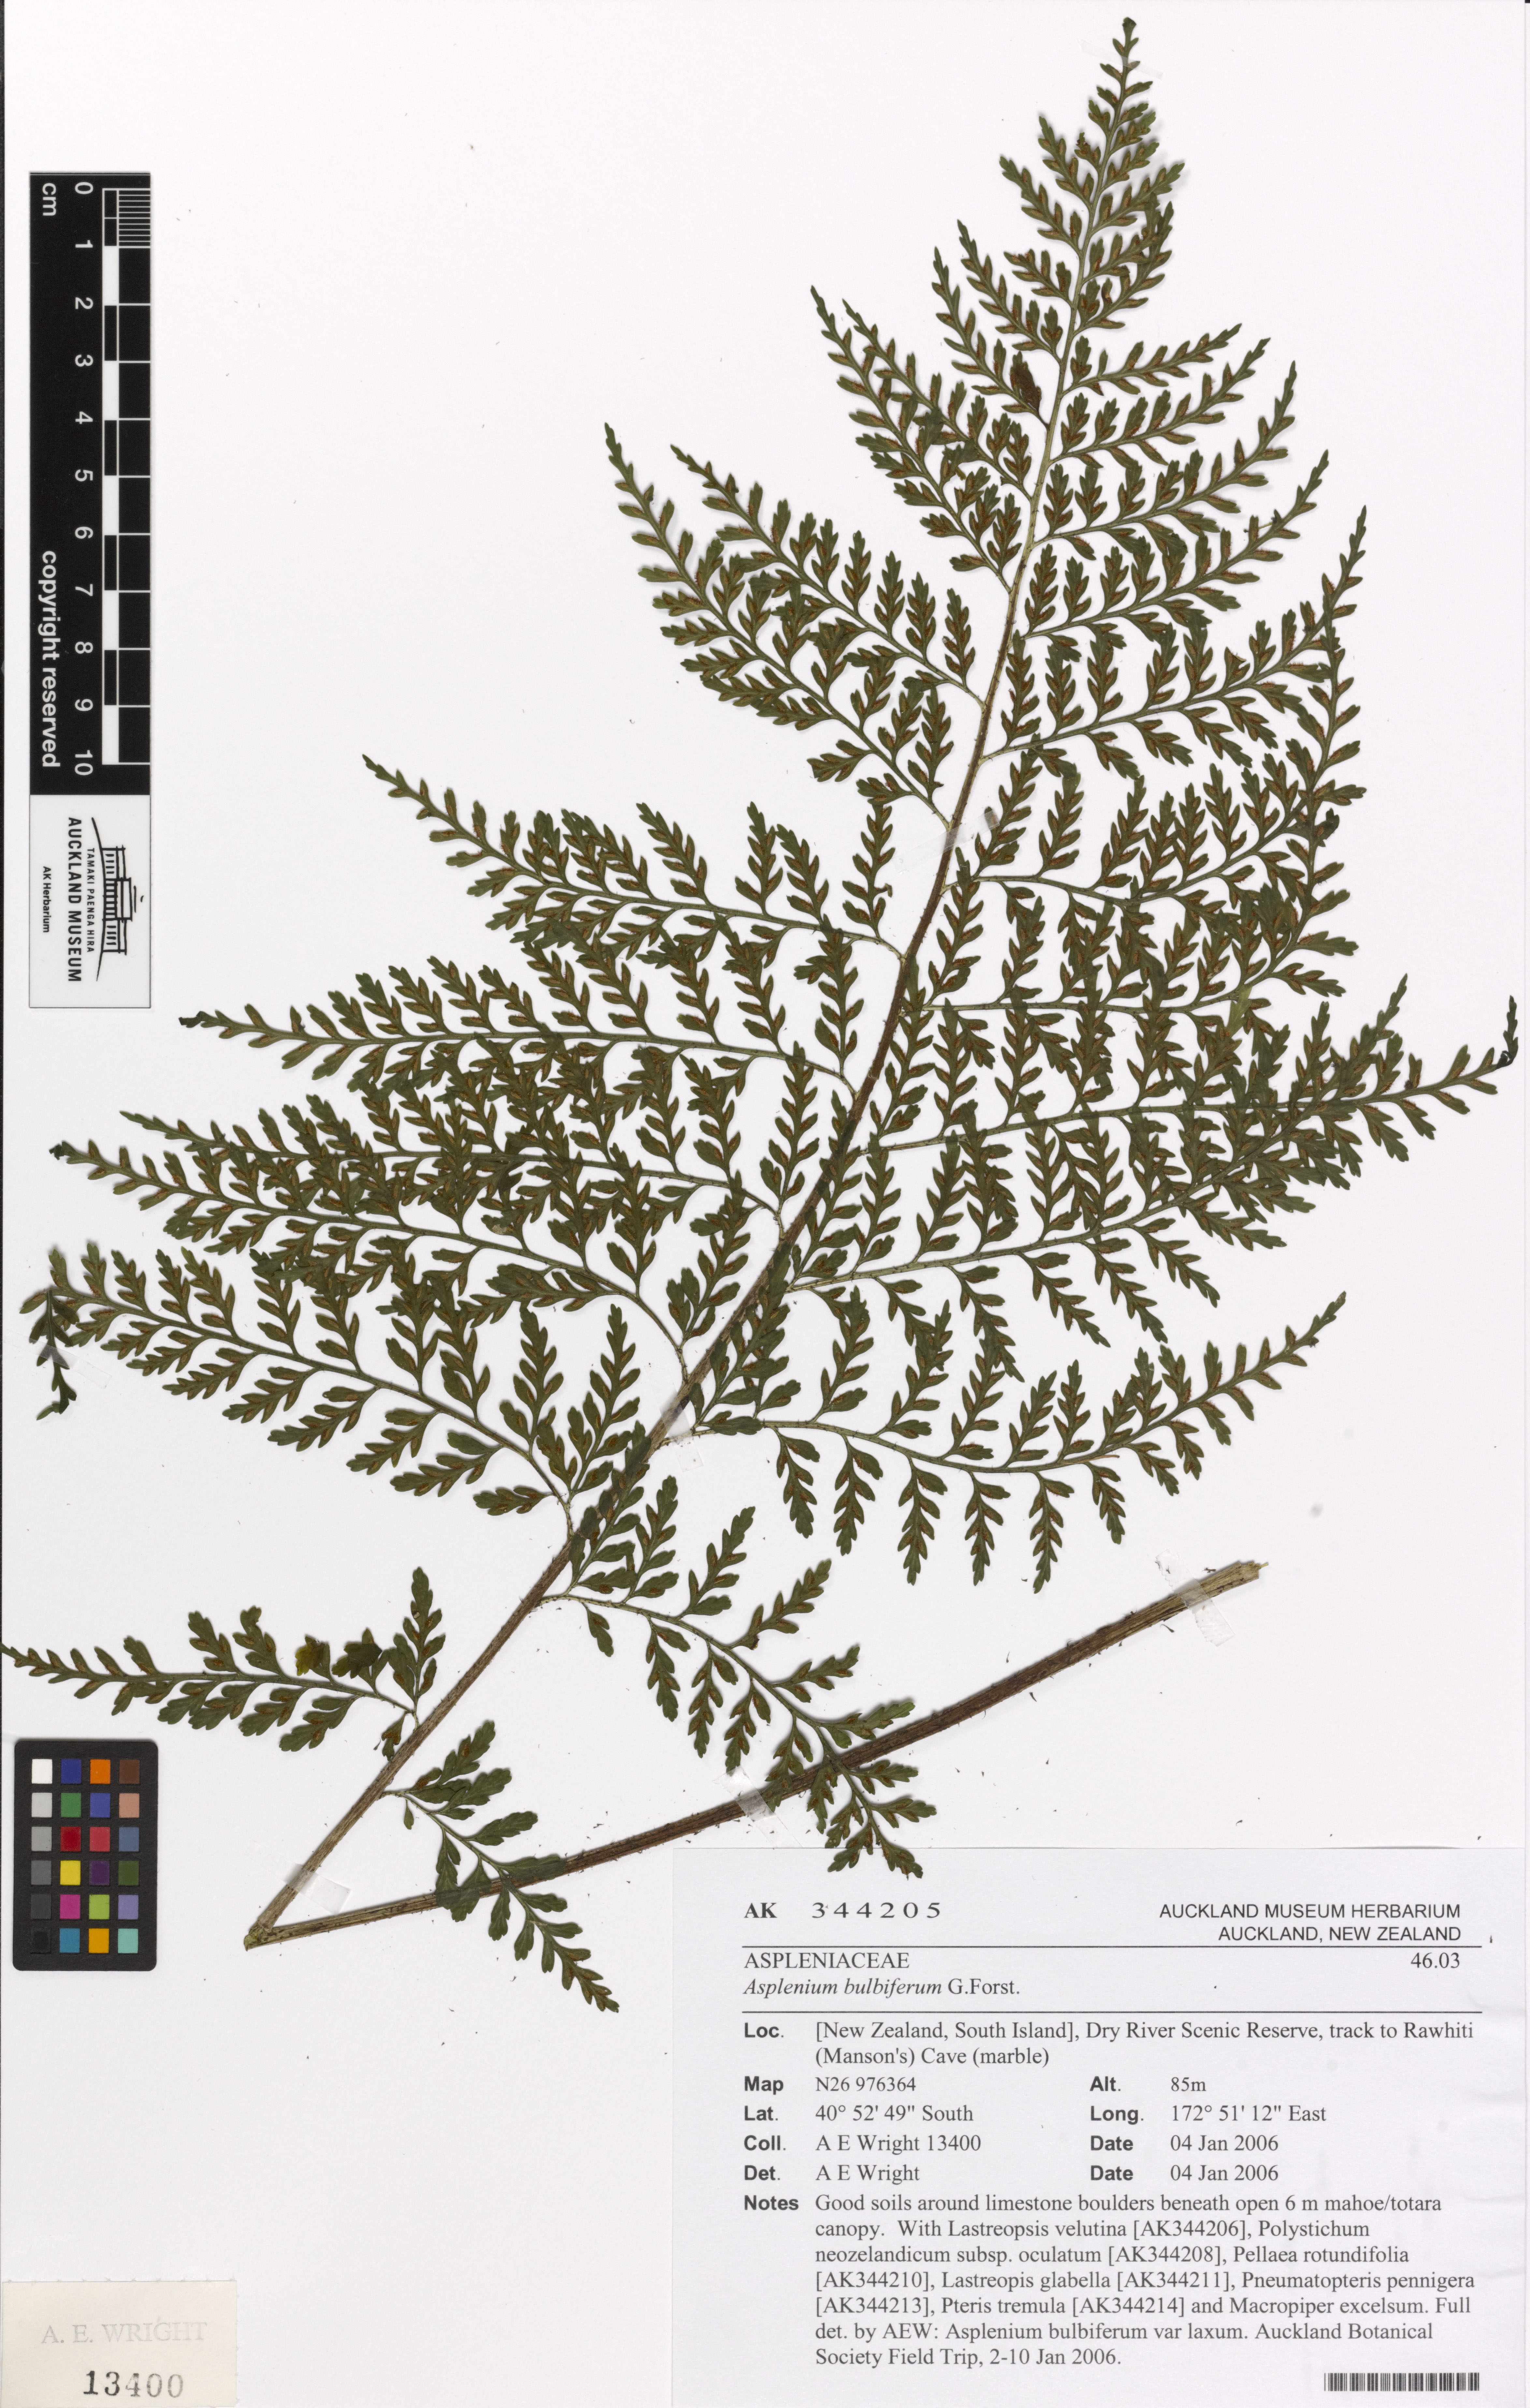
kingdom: Plantae
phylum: Tracheophyta
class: Polypodiopsida
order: Polypodiales
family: Aspleniaceae
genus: Asplenium
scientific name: Asplenium bulbiferum
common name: Mother fern
